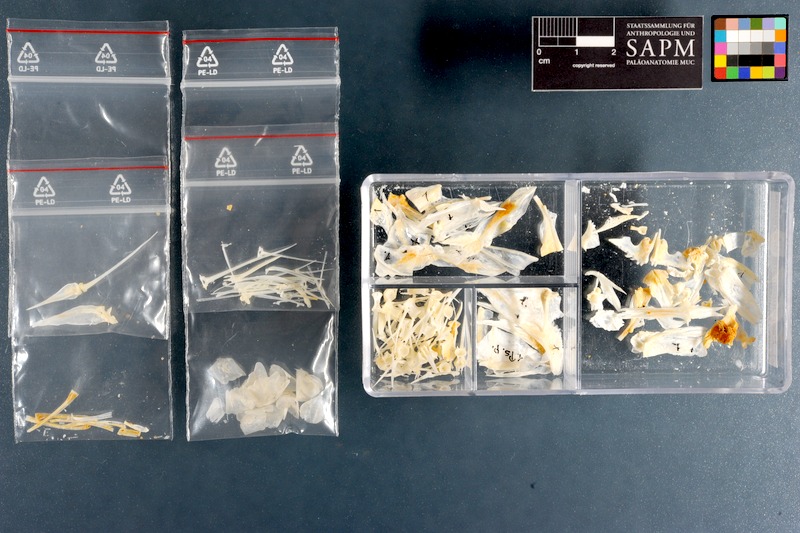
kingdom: Animalia
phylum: Chordata
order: Perciformes
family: Mullidae
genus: Pseudupeneus
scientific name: Pseudupeneus prayensis
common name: West african goatfish
